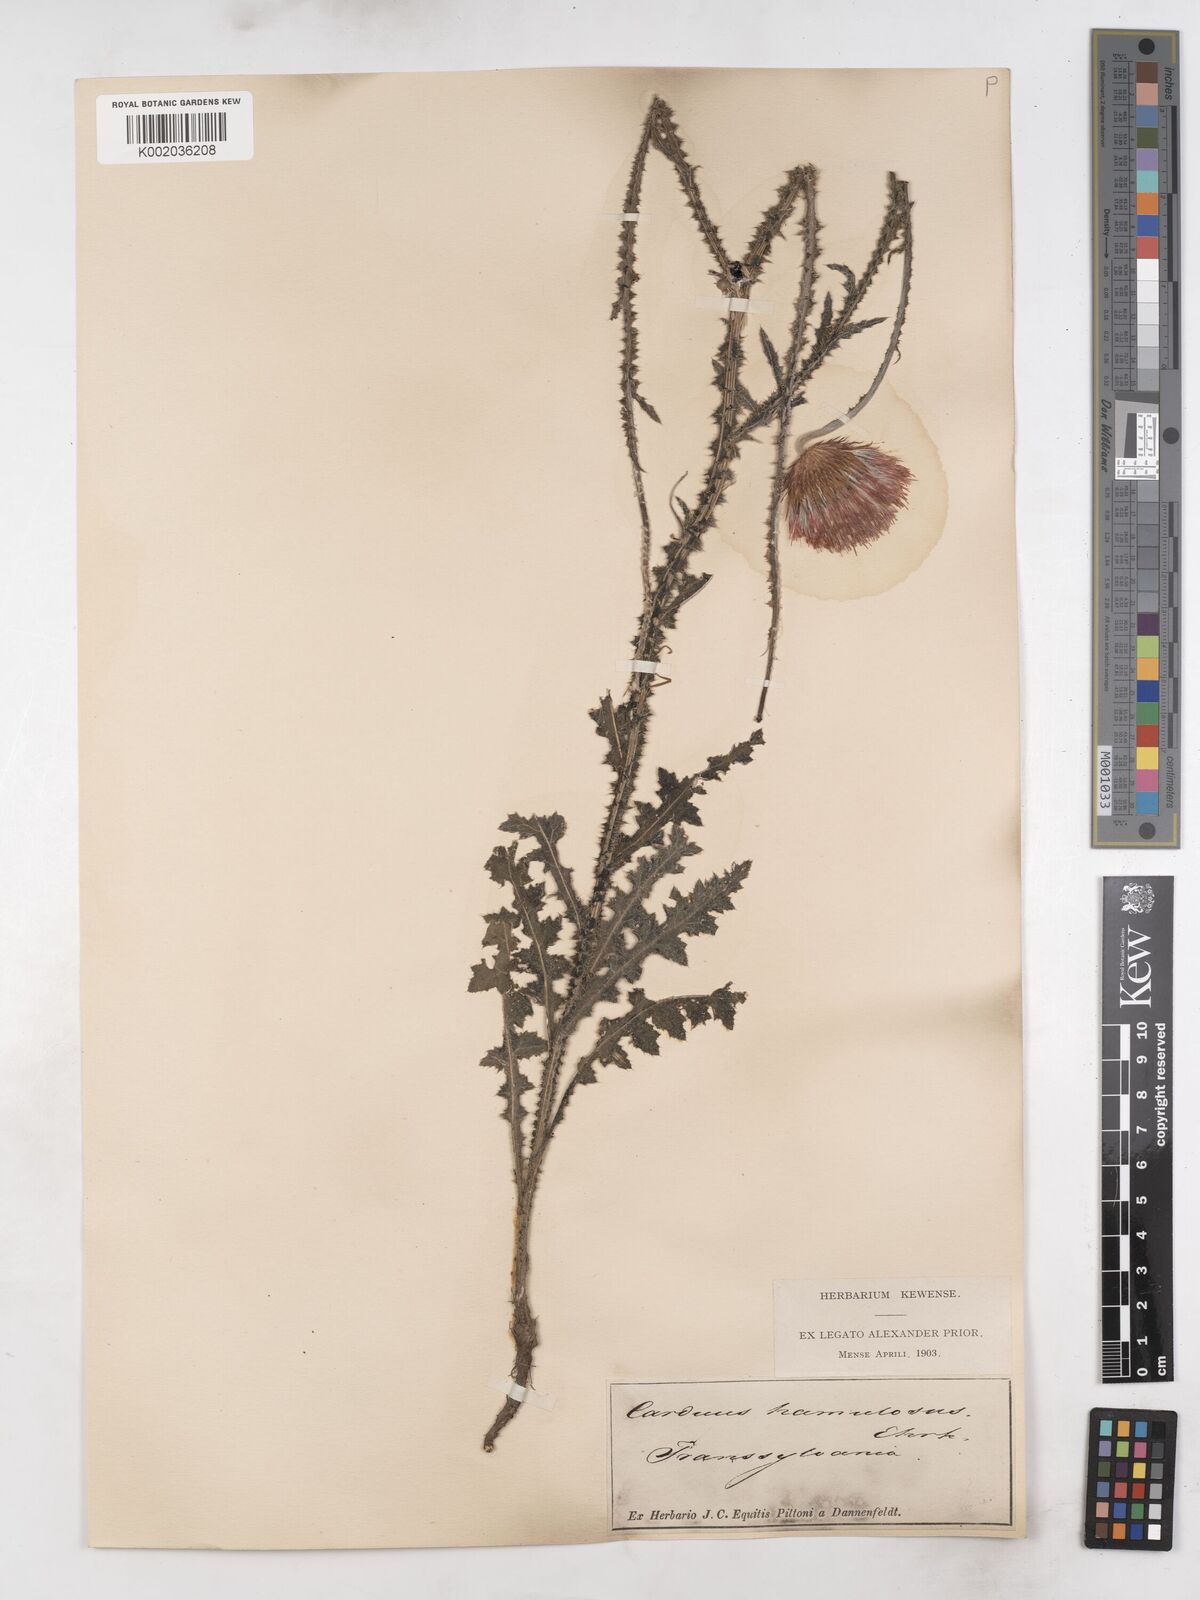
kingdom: Plantae
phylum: Tracheophyta
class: Magnoliopsida
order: Asterales
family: Asteraceae
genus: Carduus
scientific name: Carduus hamulosus
